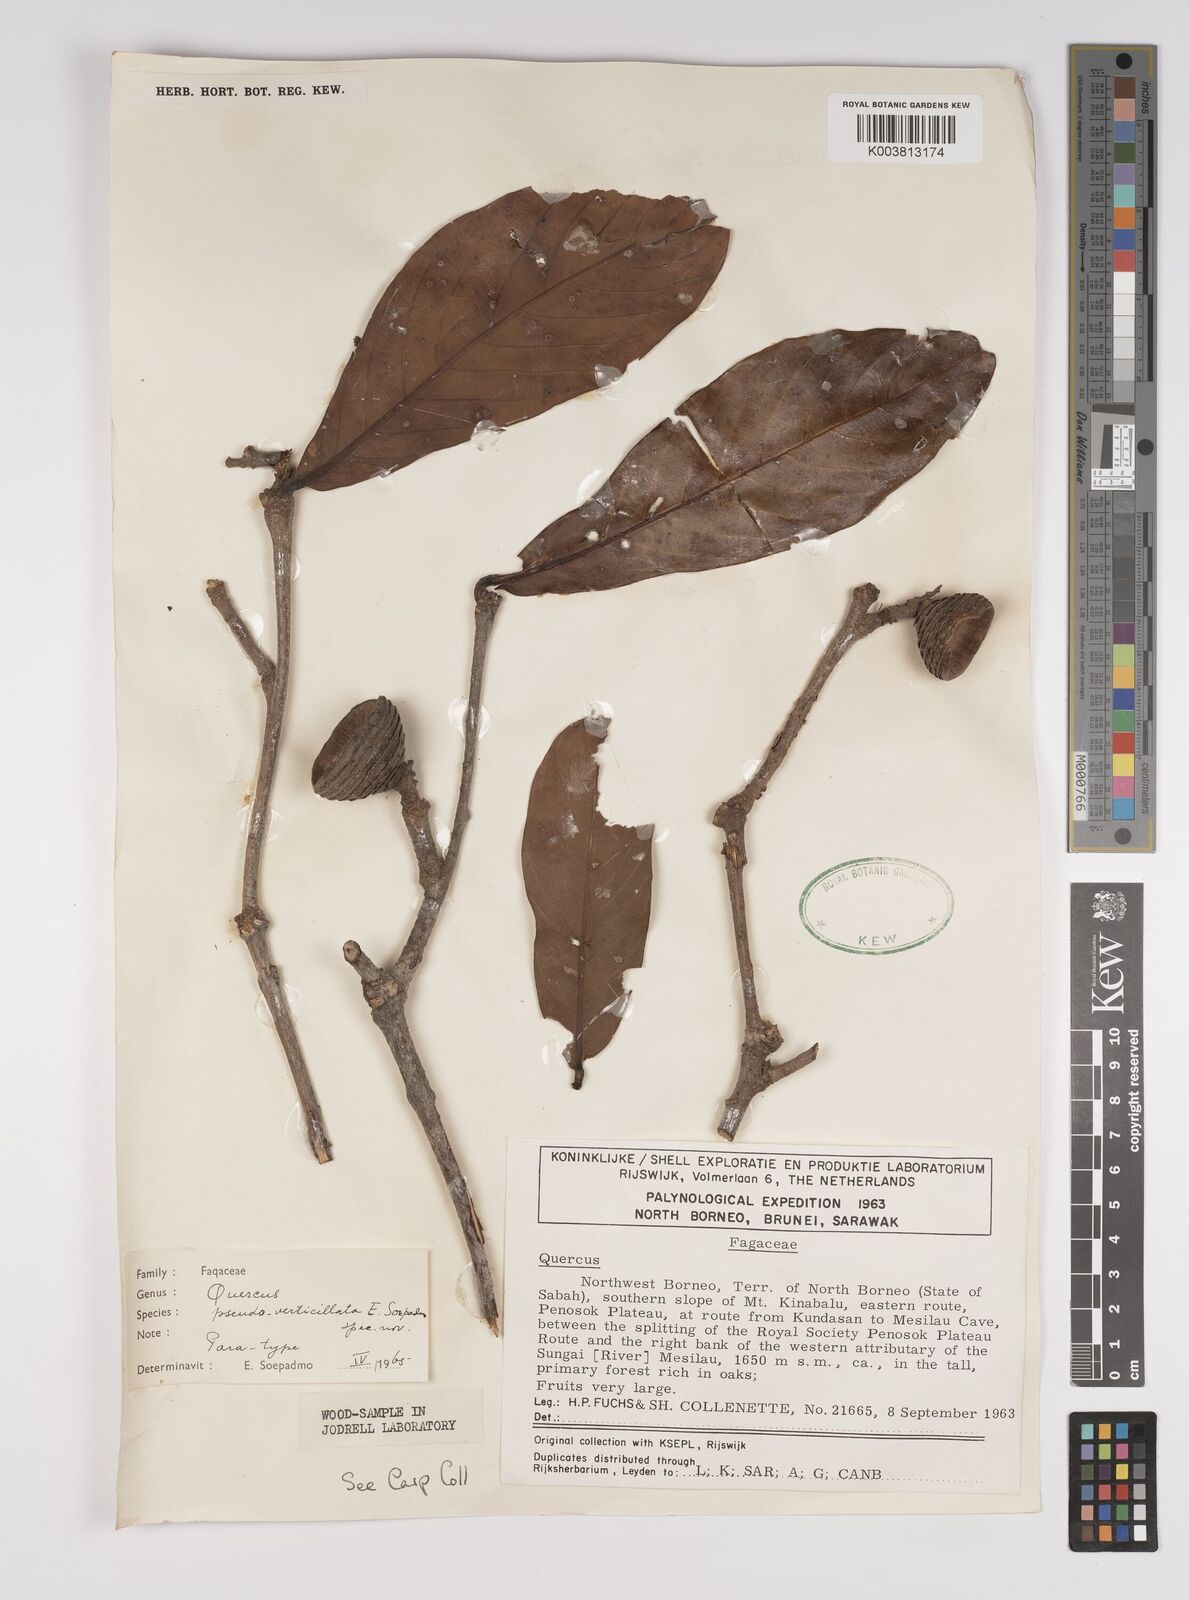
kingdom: Plantae
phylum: Tracheophyta
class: Magnoliopsida
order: Fagales
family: Fagaceae
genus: Quercus
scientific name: Quercus pseudoverticillata
